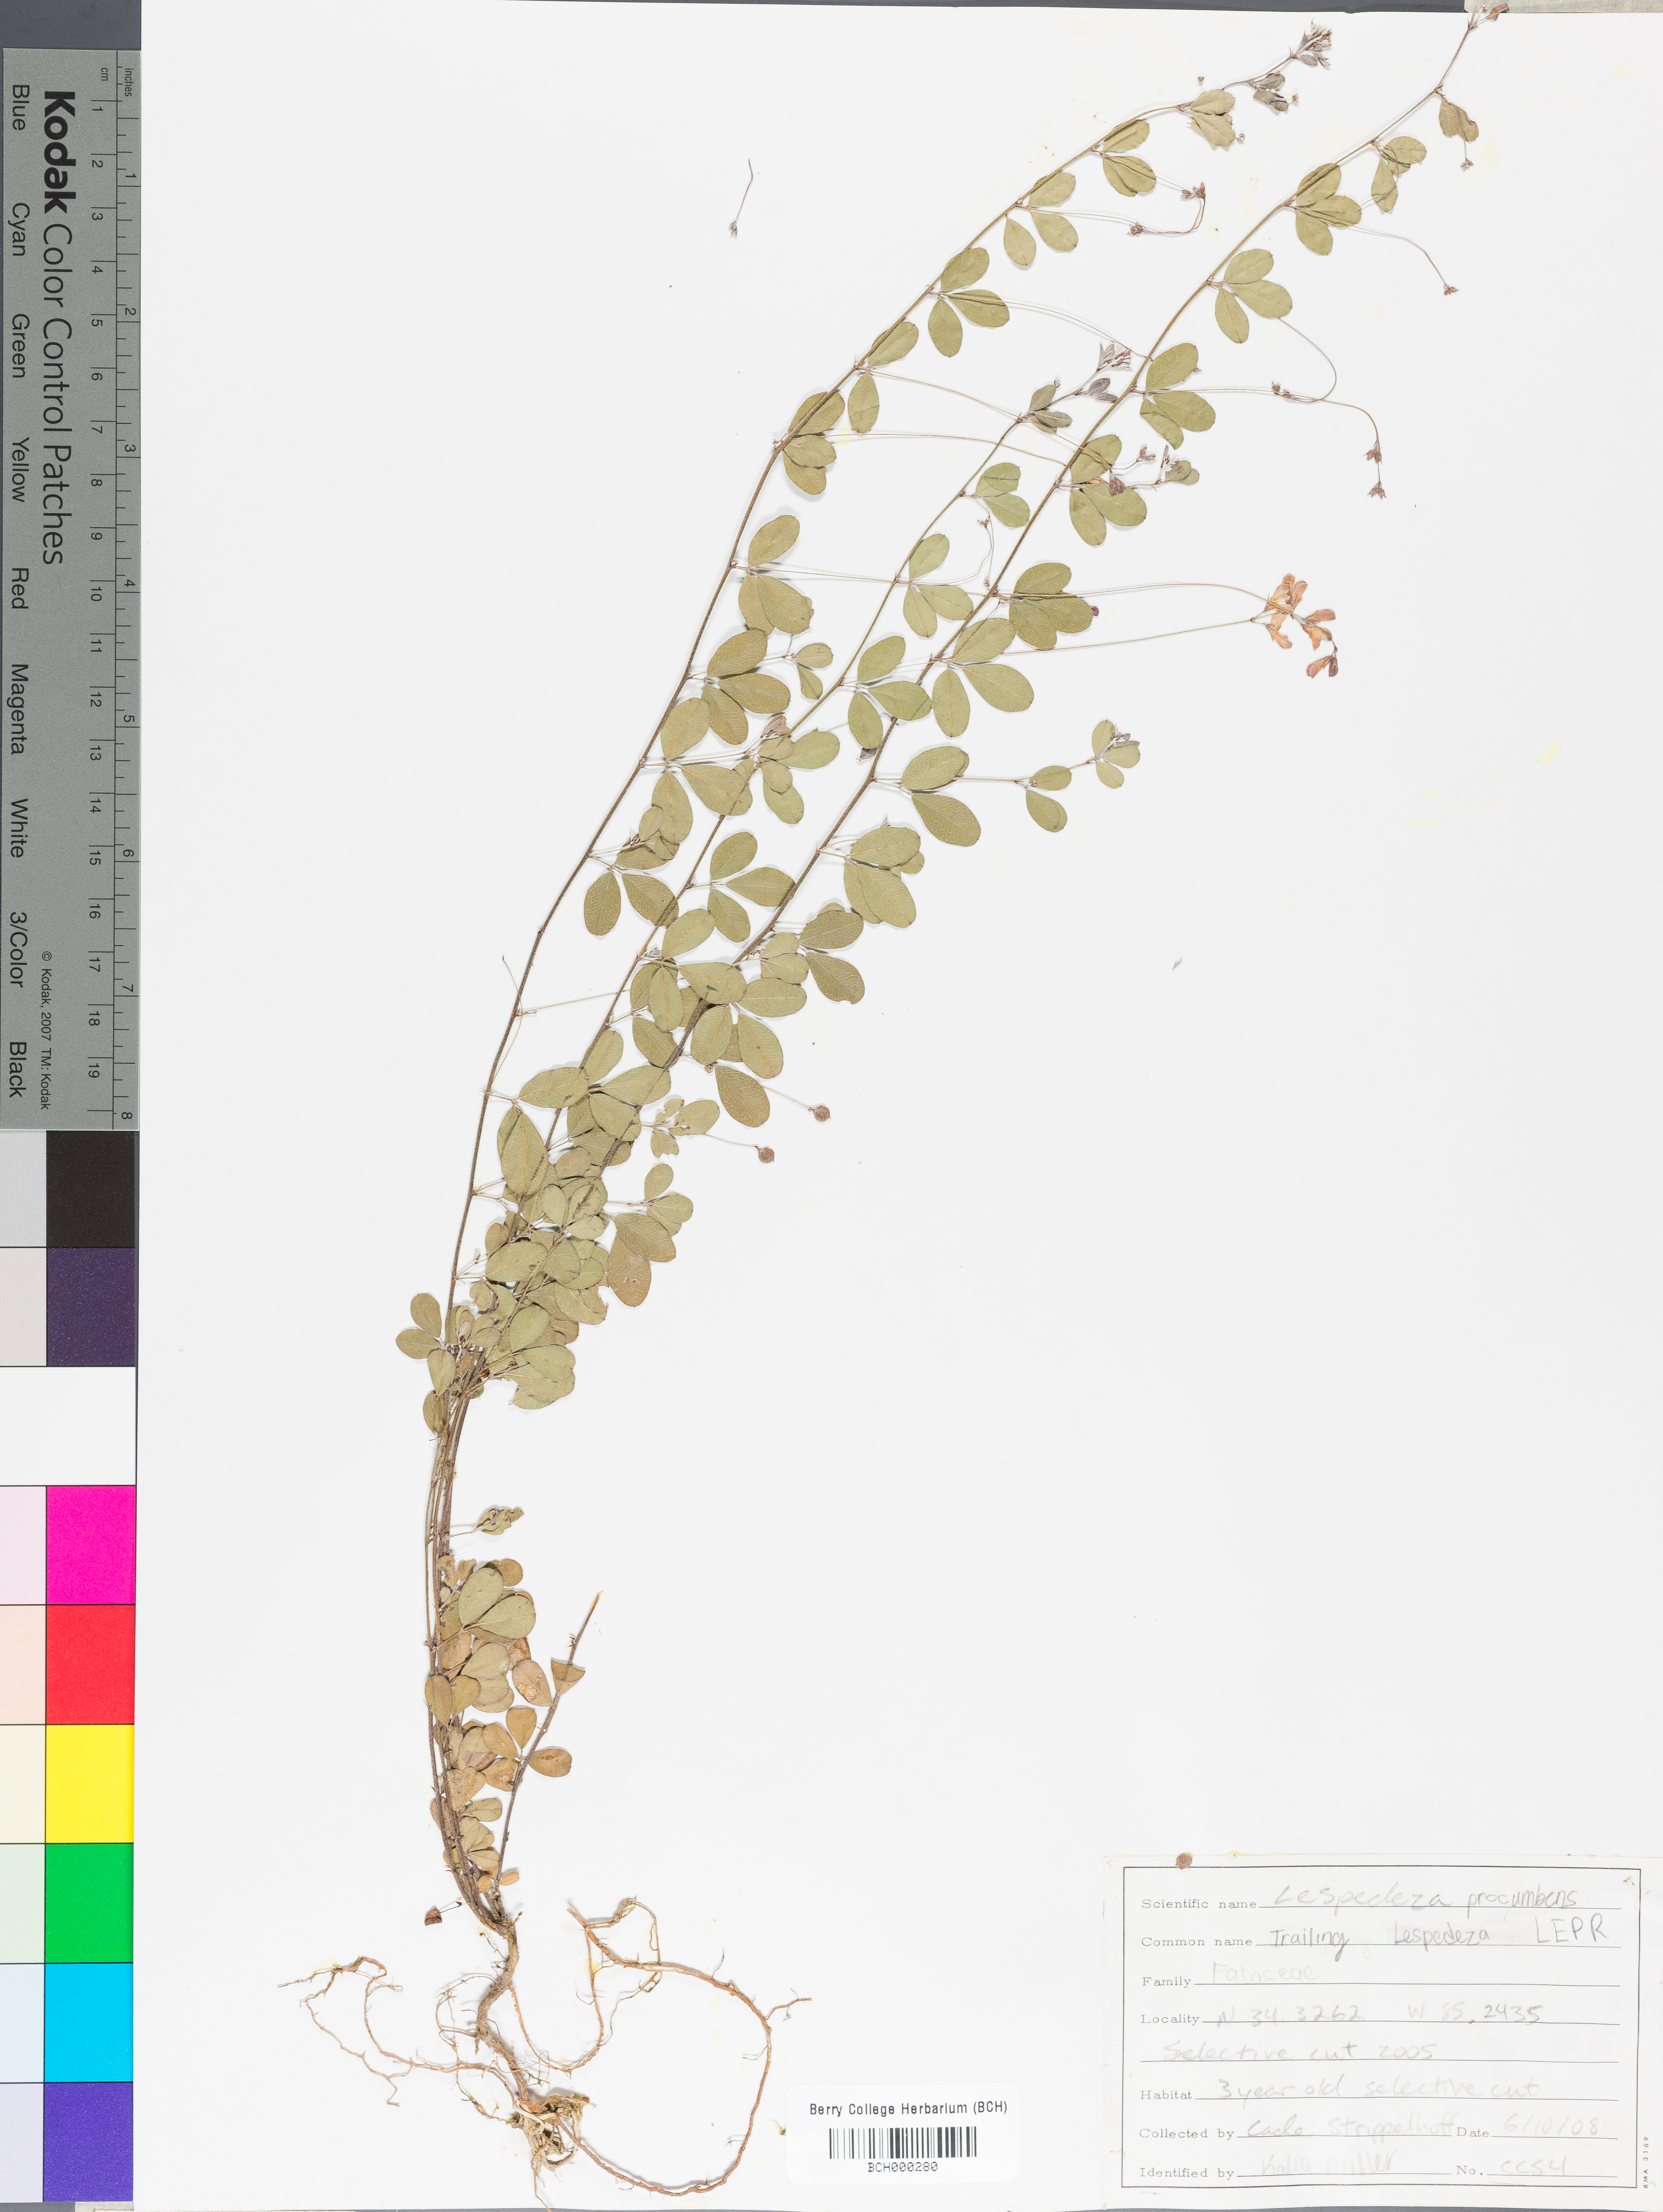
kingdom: Plantae
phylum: Tracheophyta
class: Magnoliopsida
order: Fabales
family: Fabaceae
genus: Lespedeza
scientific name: Lespedeza procumbens
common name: Downy trailing bush-clover
